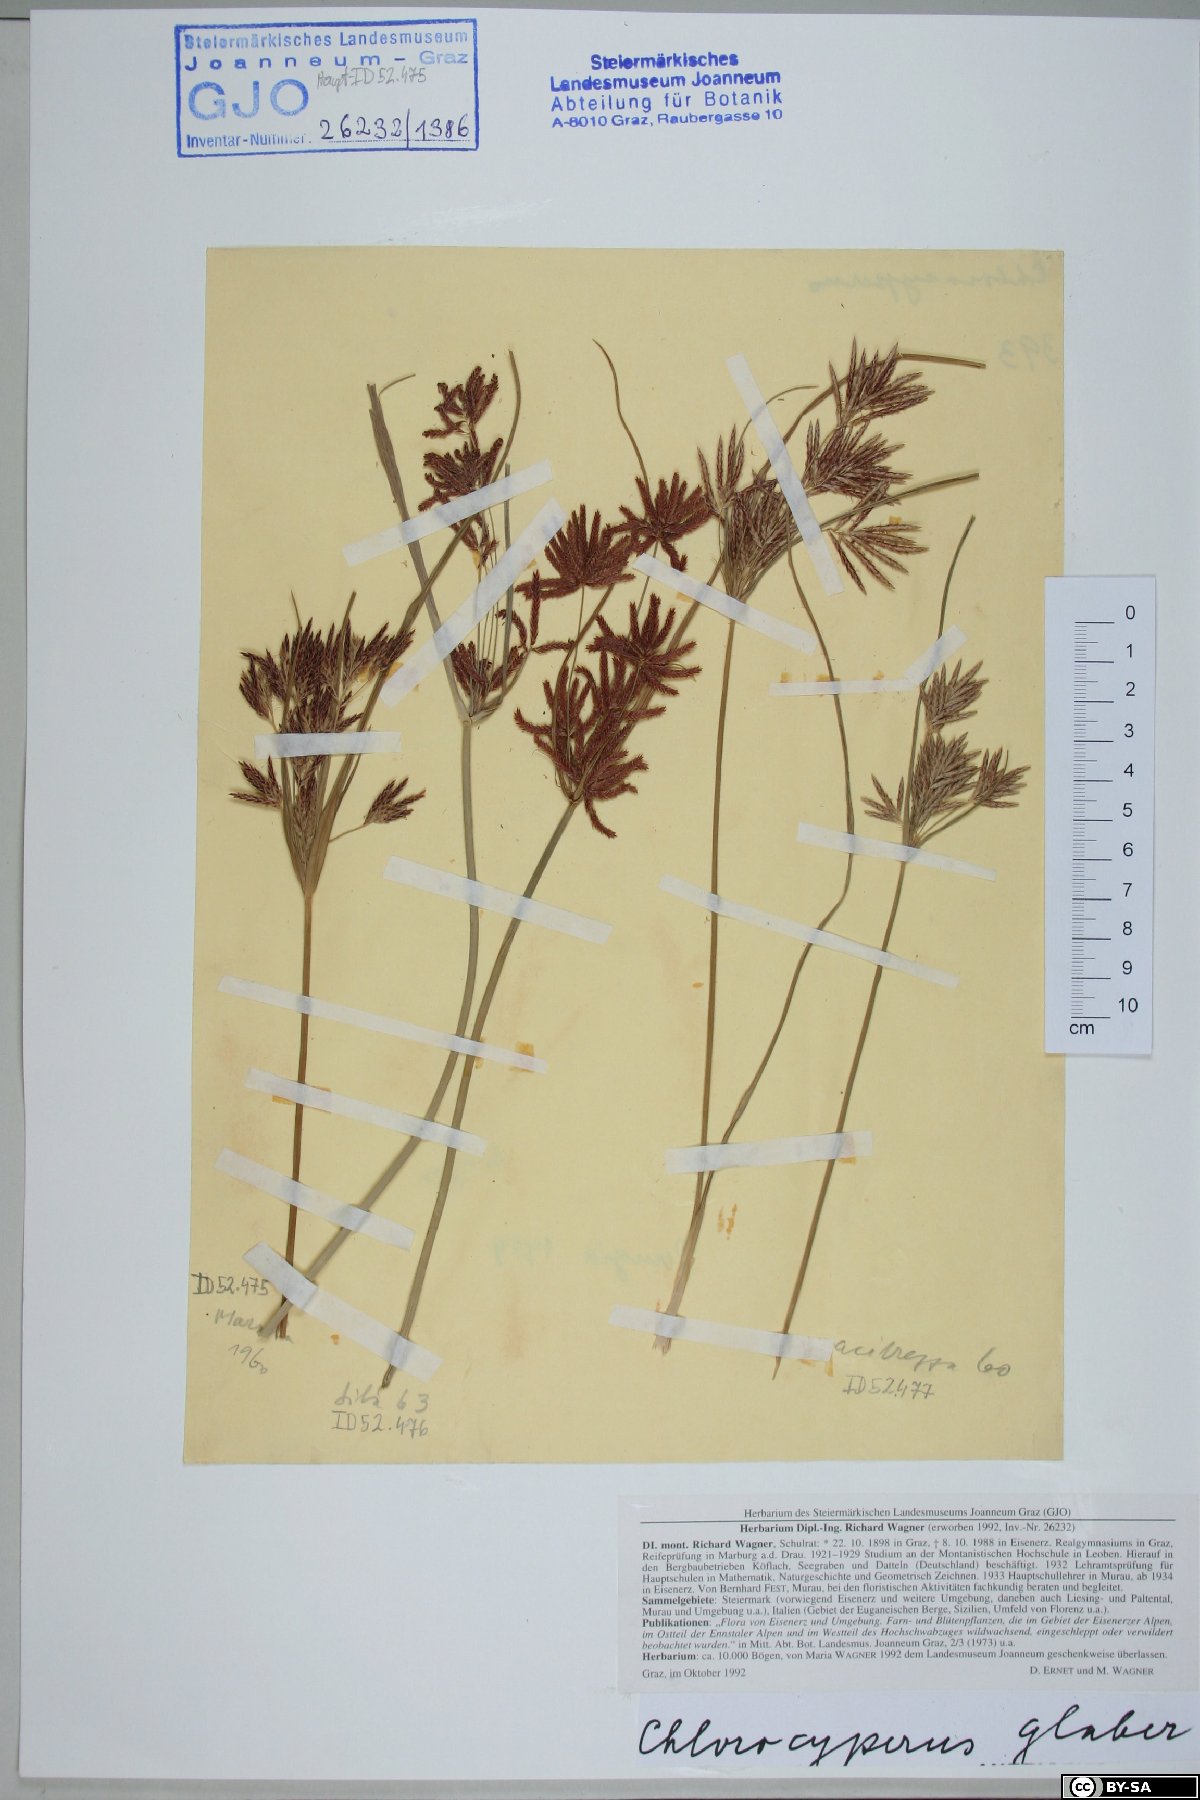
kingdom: Plantae
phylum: Tracheophyta
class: Liliopsida
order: Poales
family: Cyperaceae
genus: Cyperus
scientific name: Cyperus glaber
